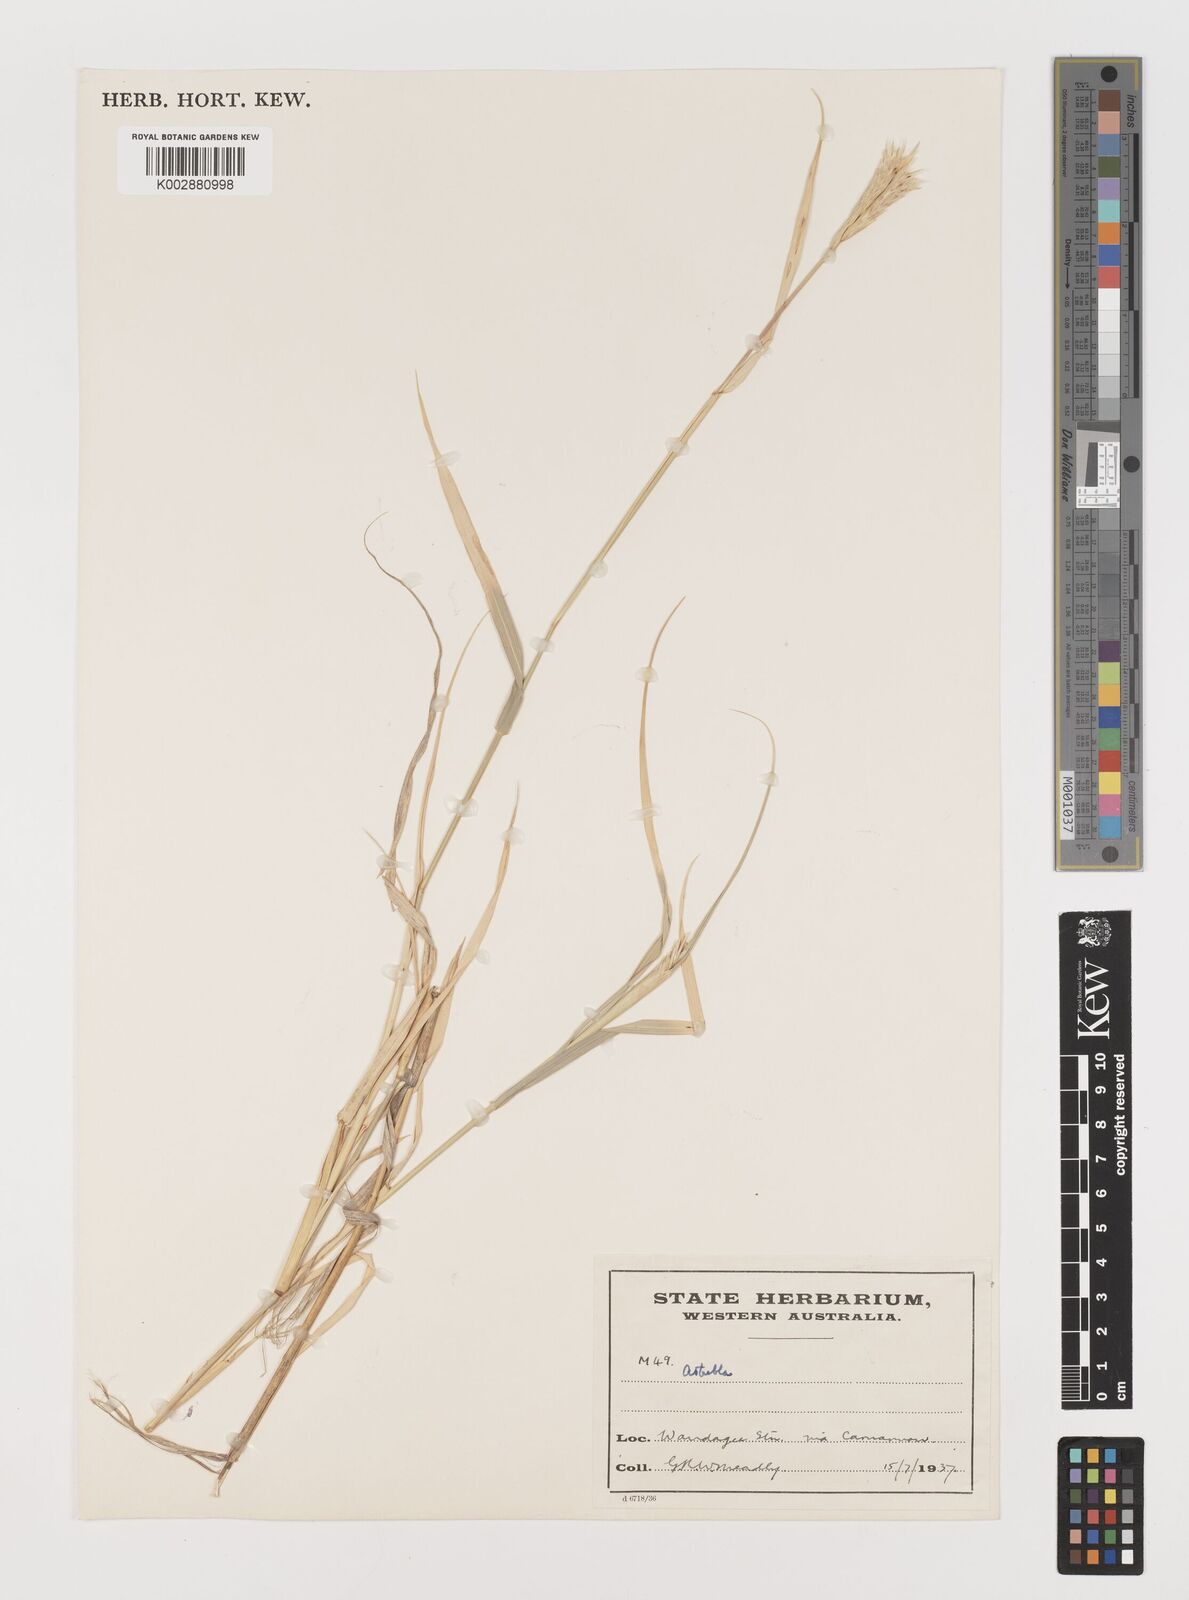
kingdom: Plantae
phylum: Tracheophyta
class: Liliopsida
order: Poales
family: Poaceae
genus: Astrebla
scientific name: Astrebla lappacea
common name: Curly mitchell grass
